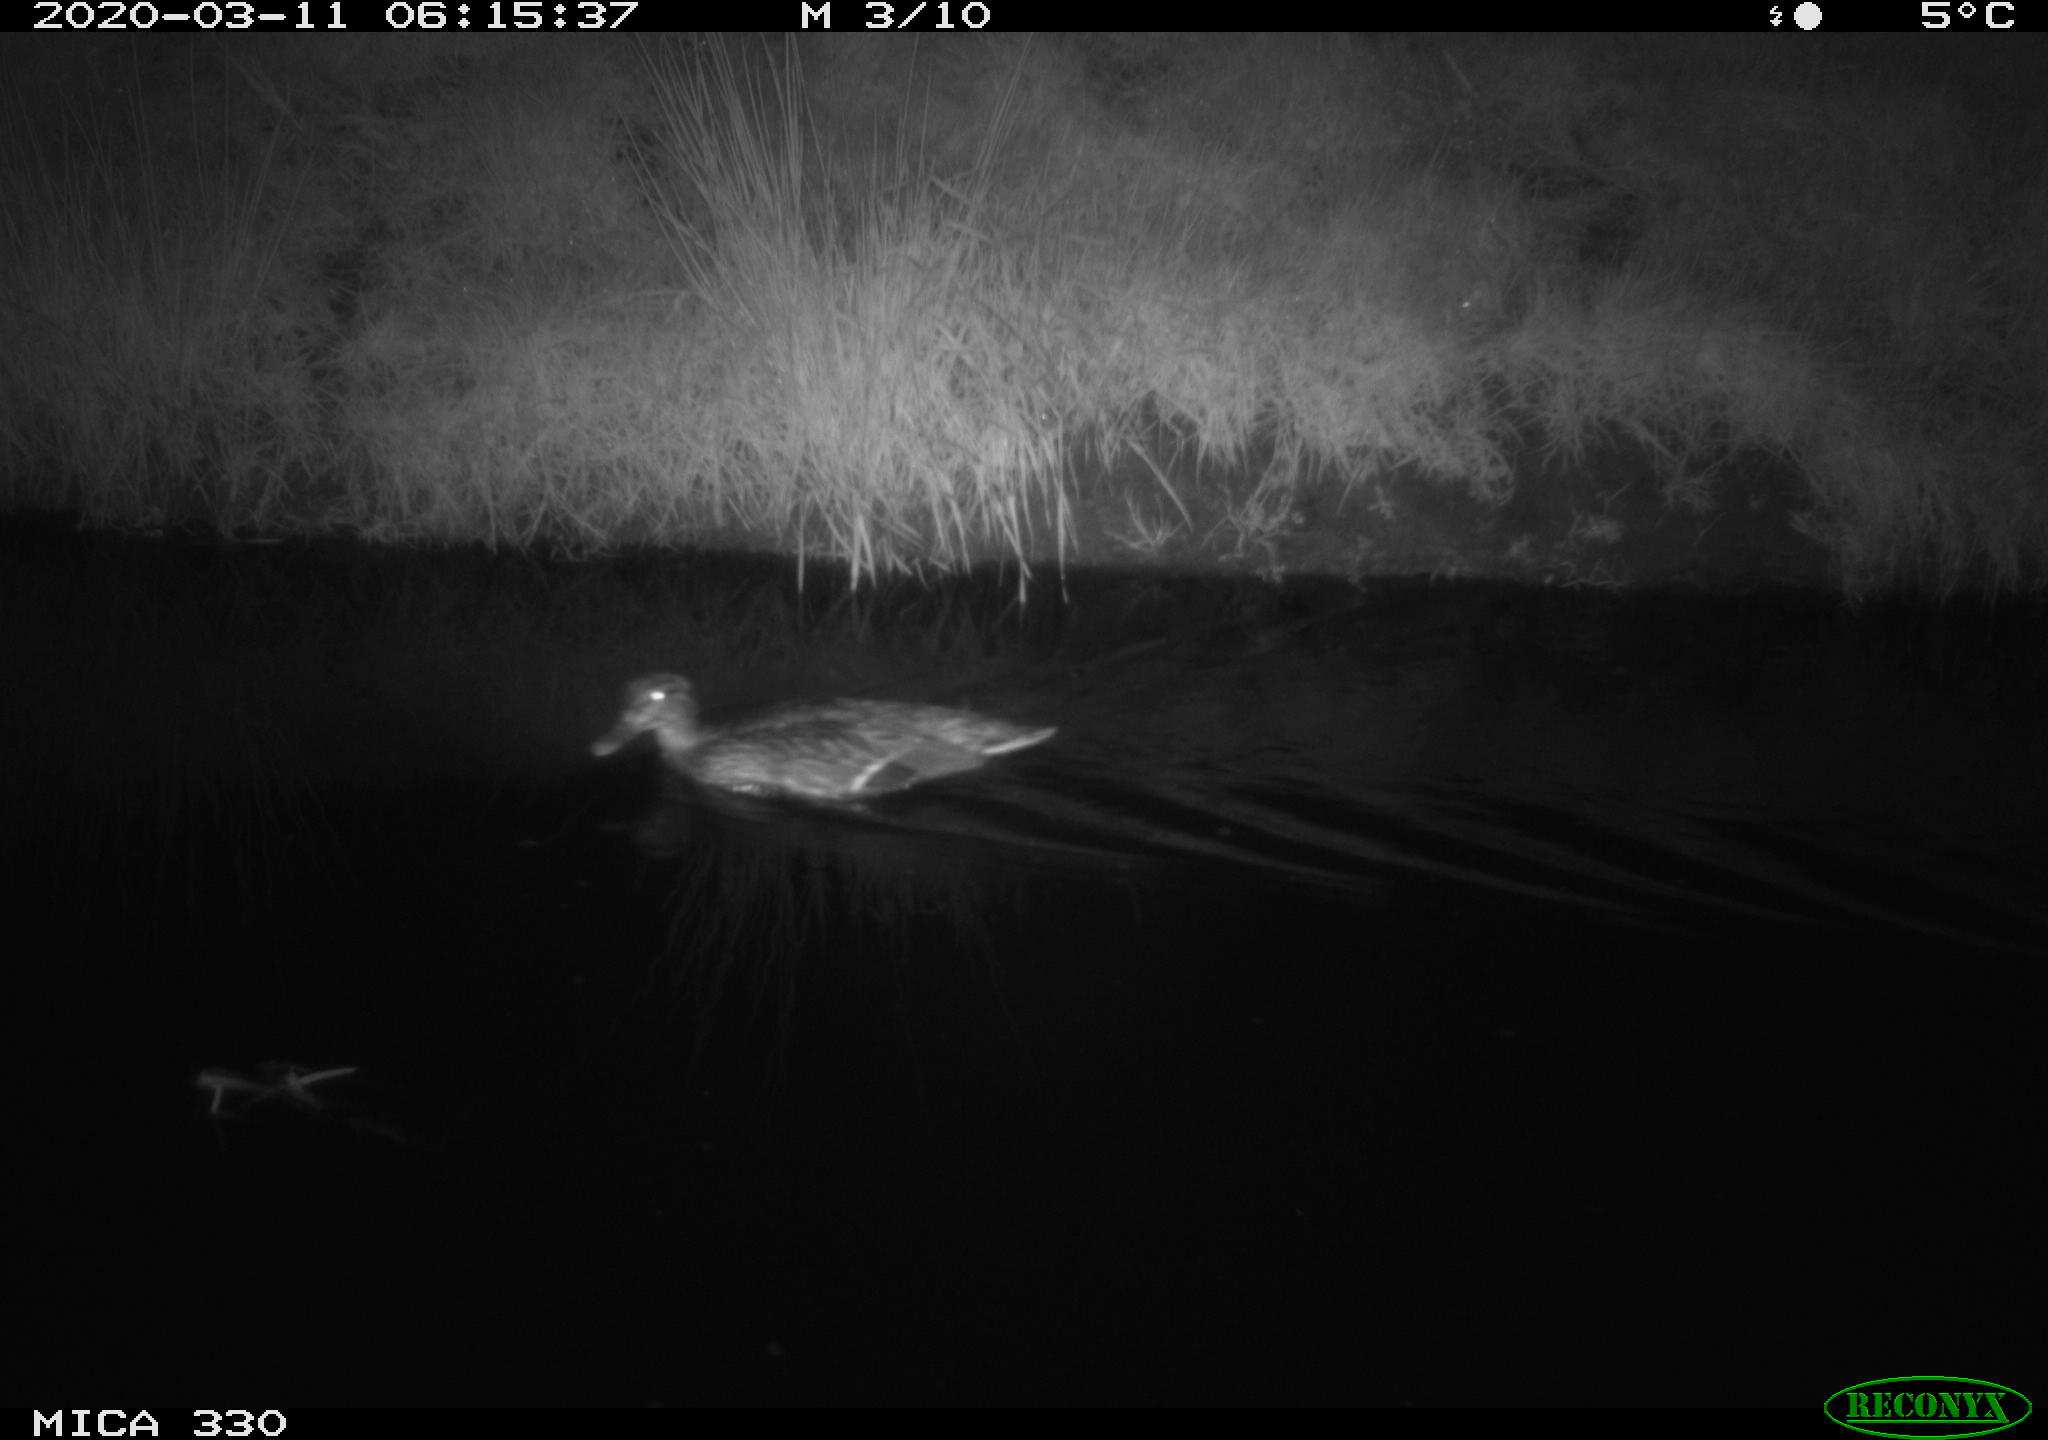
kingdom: Animalia
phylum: Chordata
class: Aves
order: Anseriformes
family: Anatidae
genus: Anas
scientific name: Anas platyrhynchos
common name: Mallard
